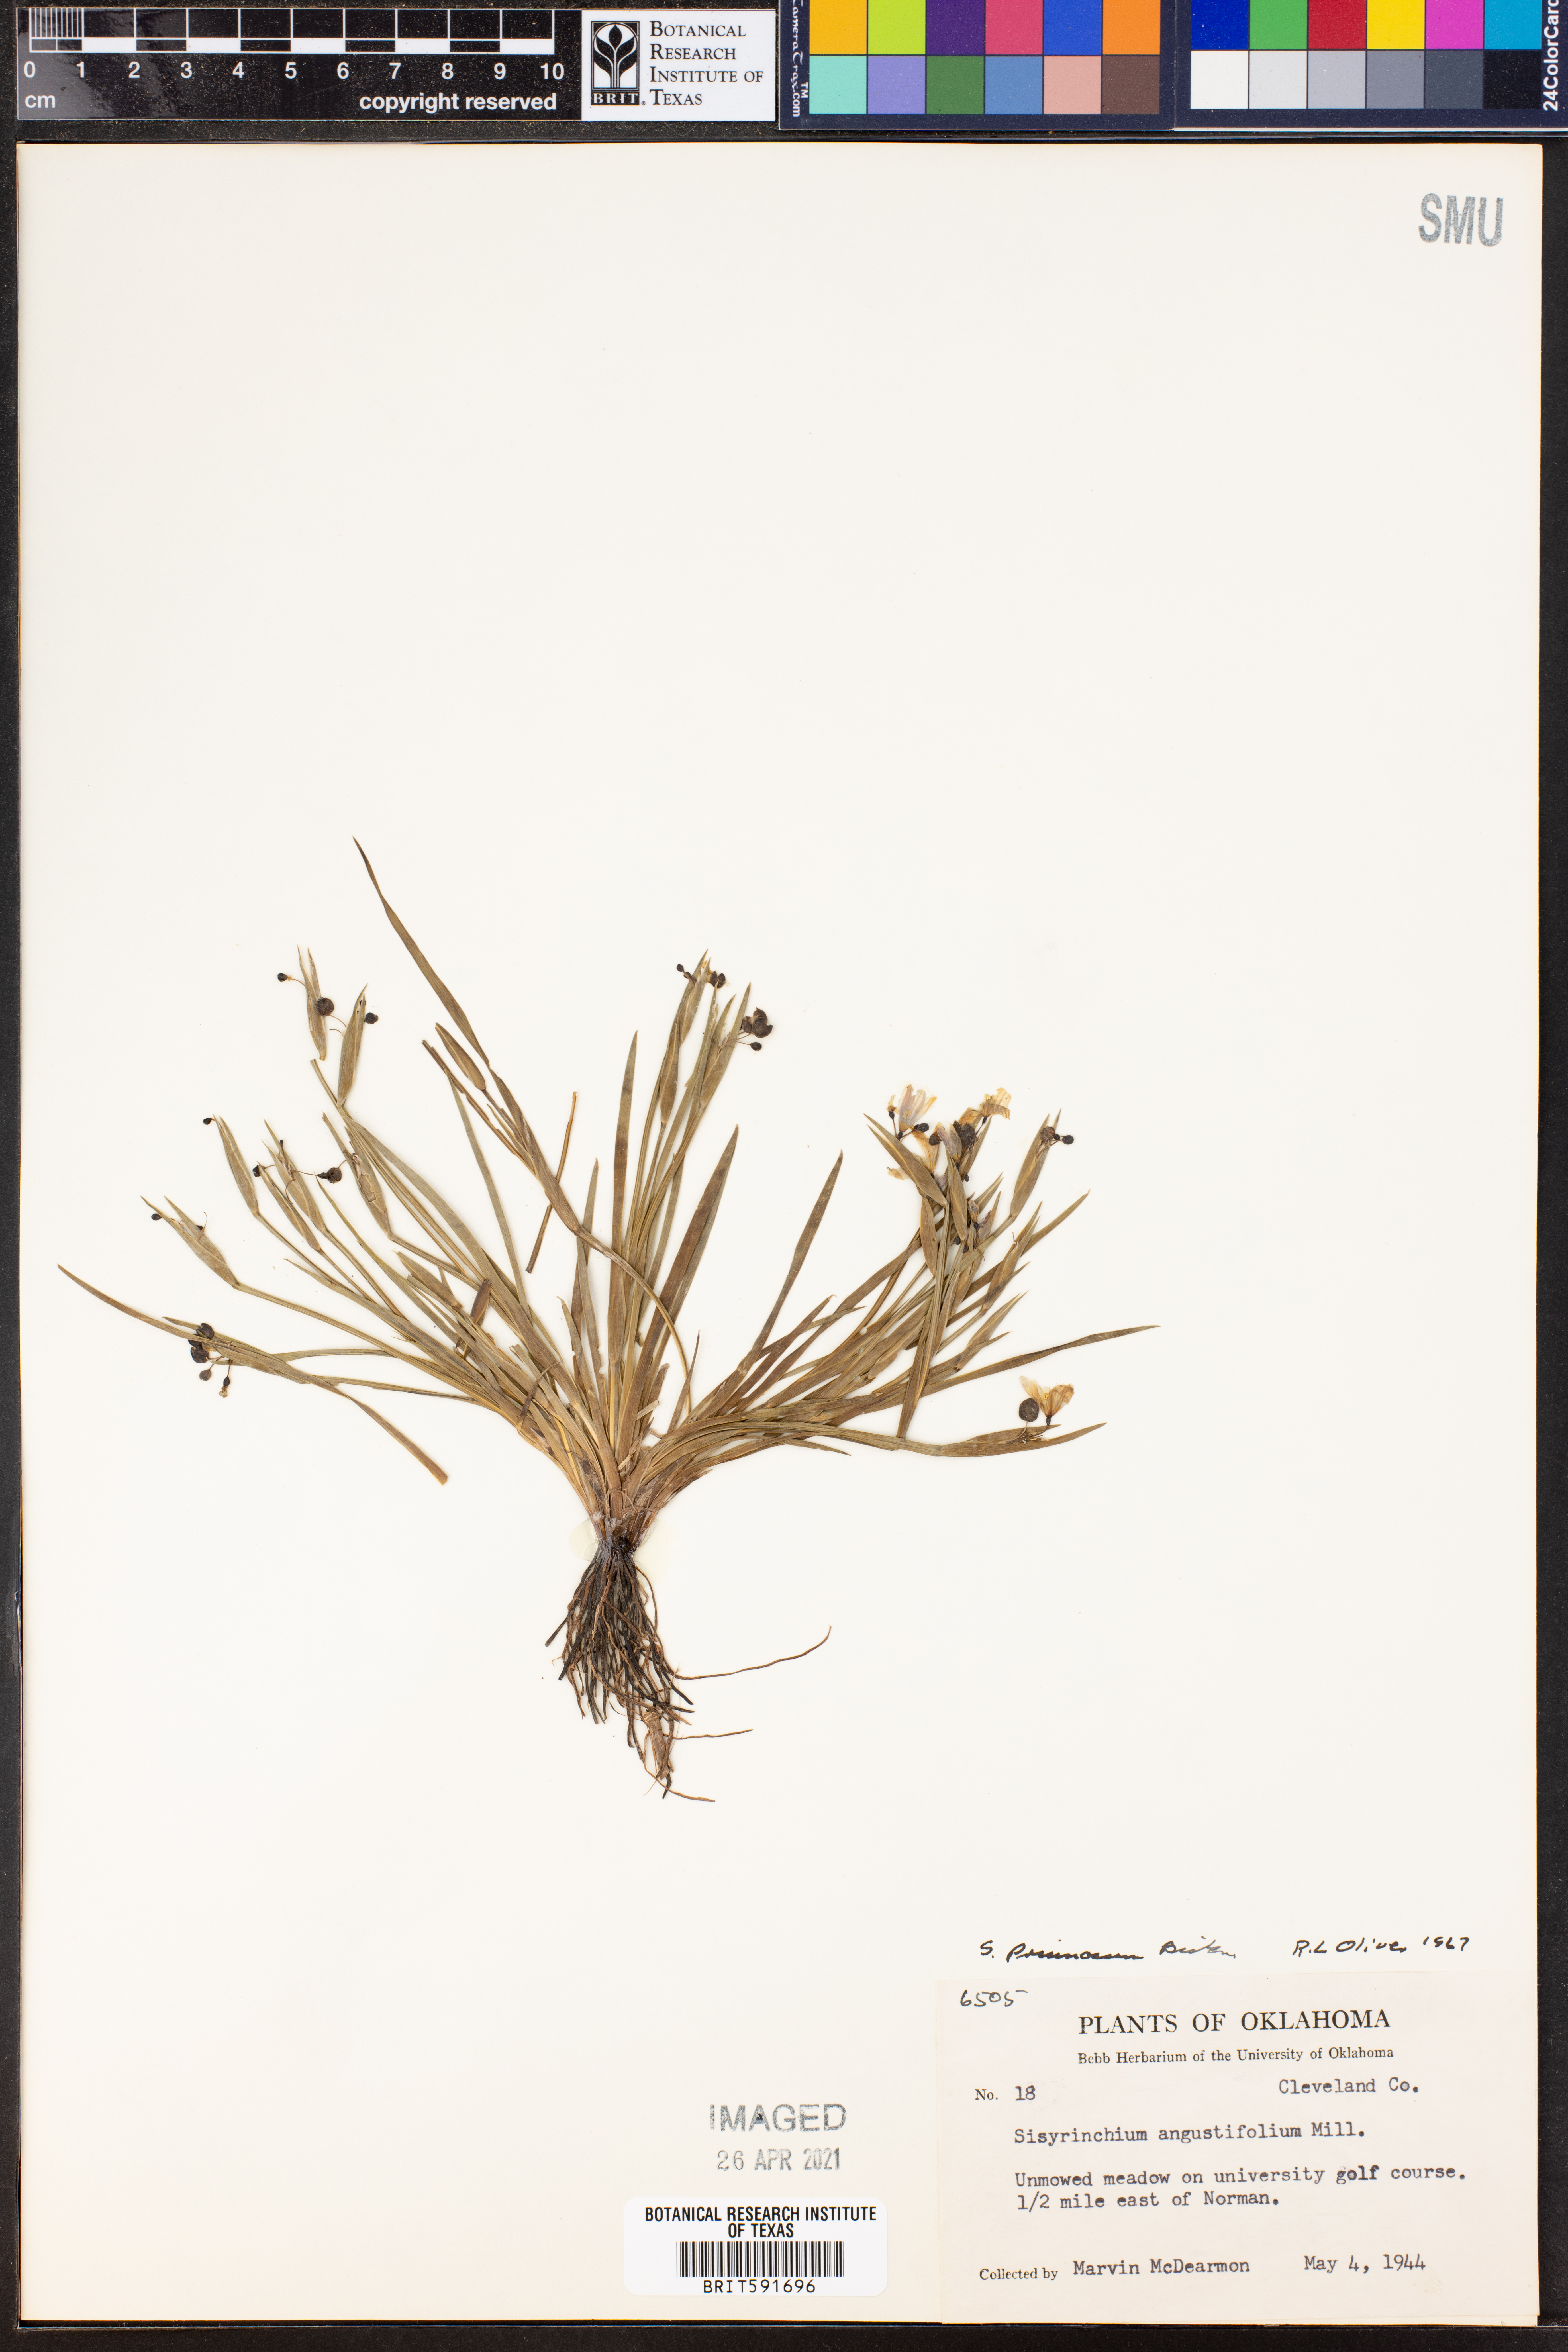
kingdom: Plantae
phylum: Tracheophyta
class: Liliopsida
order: Asparagales
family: Iridaceae
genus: Sisyrinchium
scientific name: Sisyrinchium pruinosum
